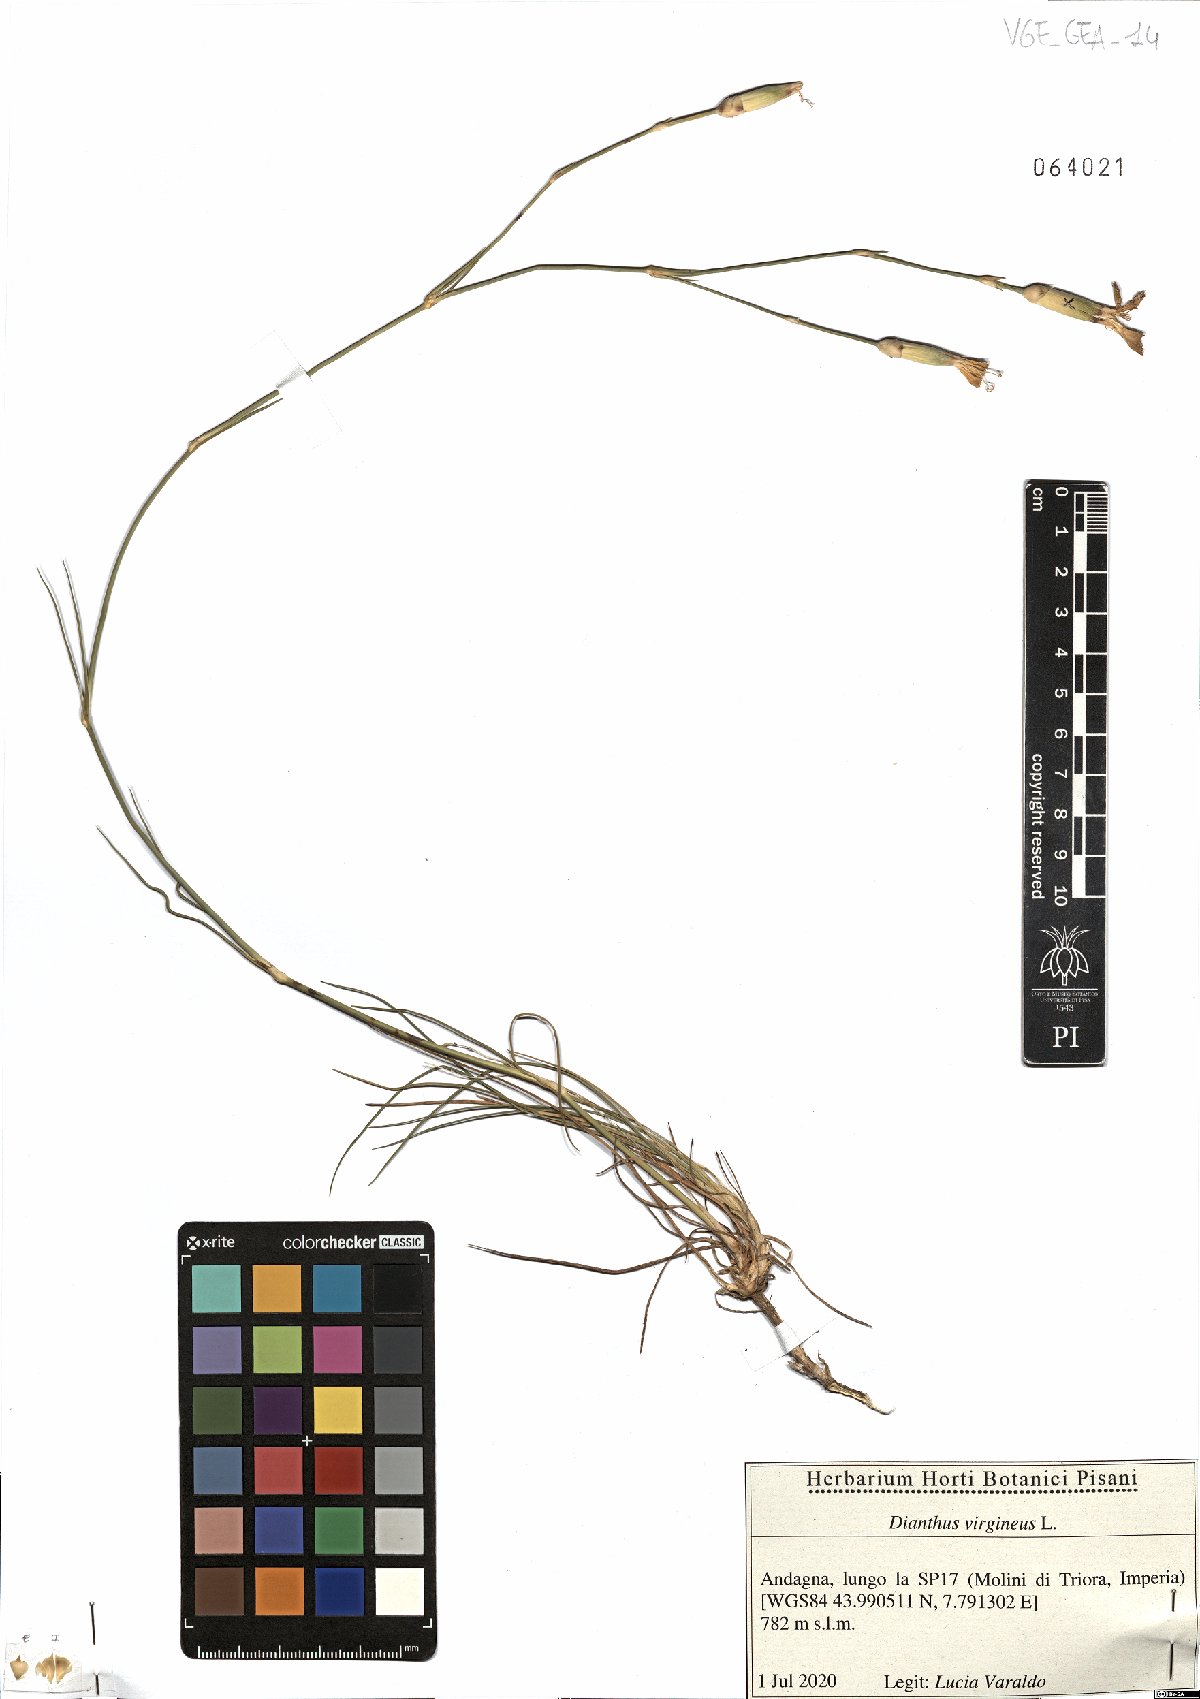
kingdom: Plantae
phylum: Tracheophyta
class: Magnoliopsida
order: Caryophyllales
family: Caryophyllaceae
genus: Dianthus
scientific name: Dianthus virgineus
